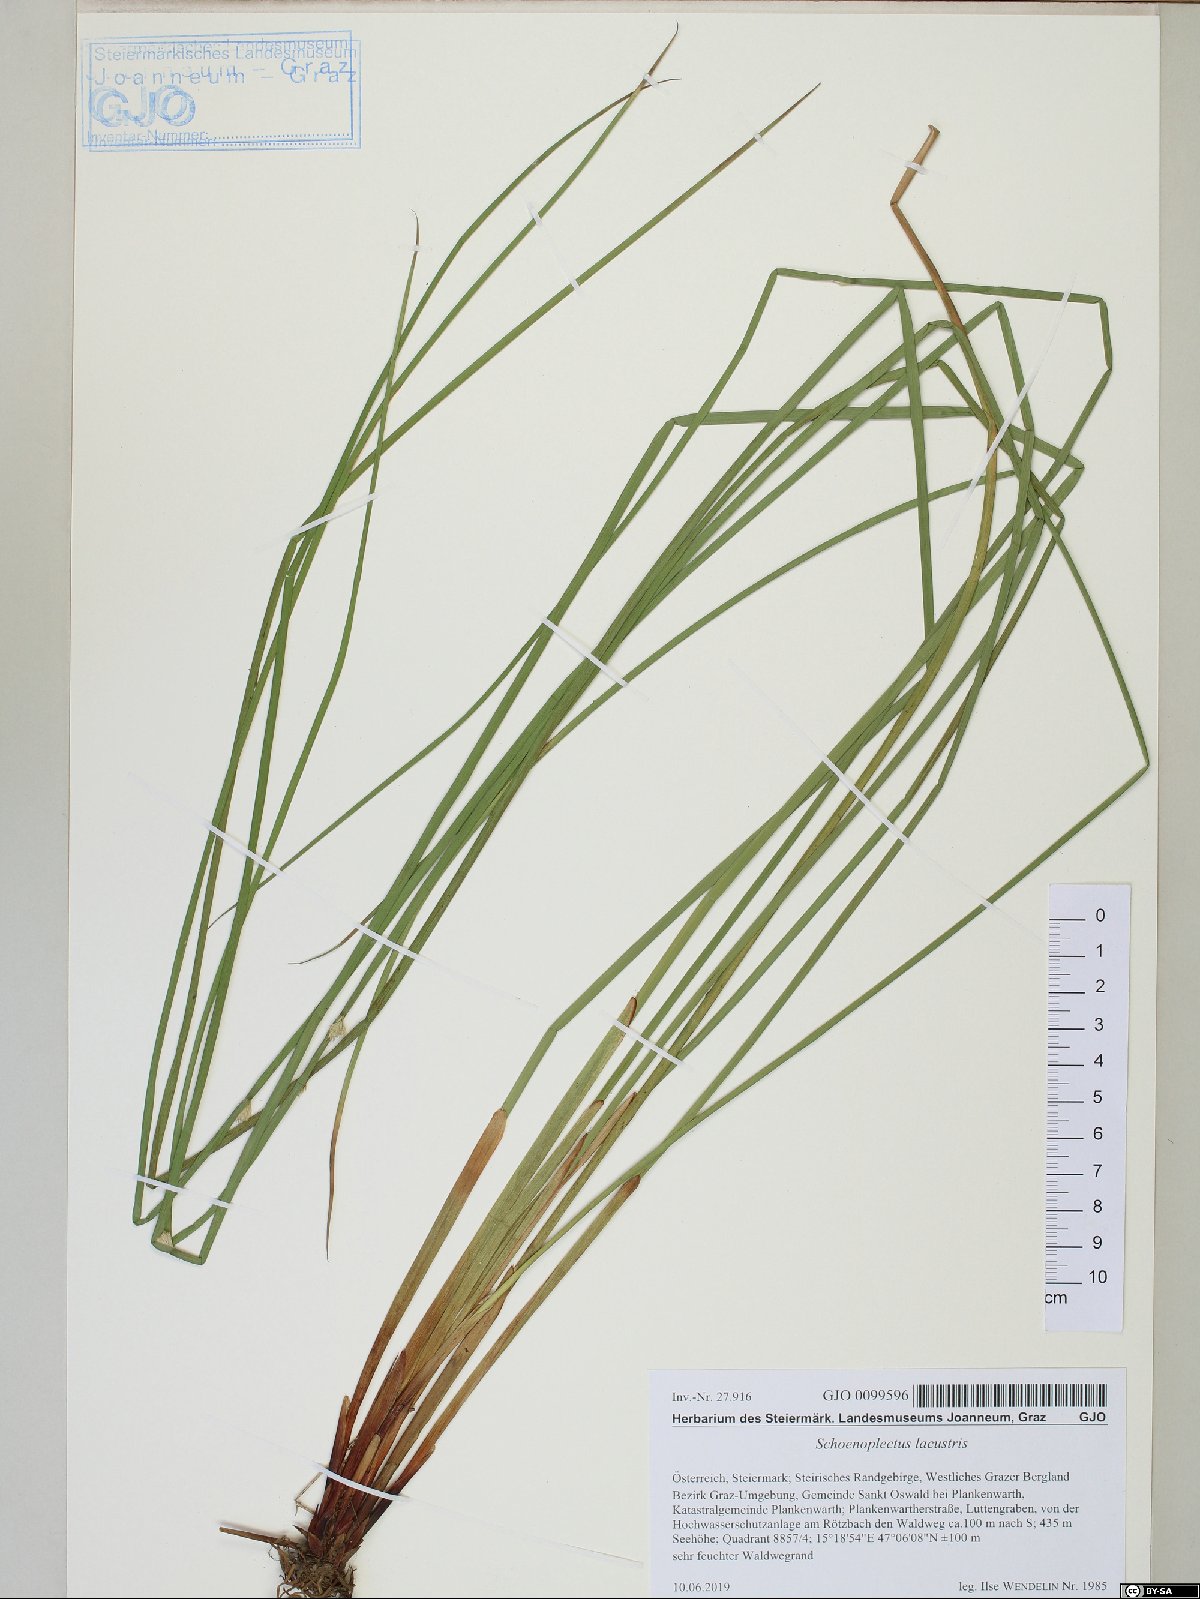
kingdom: Plantae
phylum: Tracheophyta
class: Liliopsida
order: Poales
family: Cyperaceae
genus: Schoenoplectus
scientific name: Schoenoplectus lacustris
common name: Common club-rush
